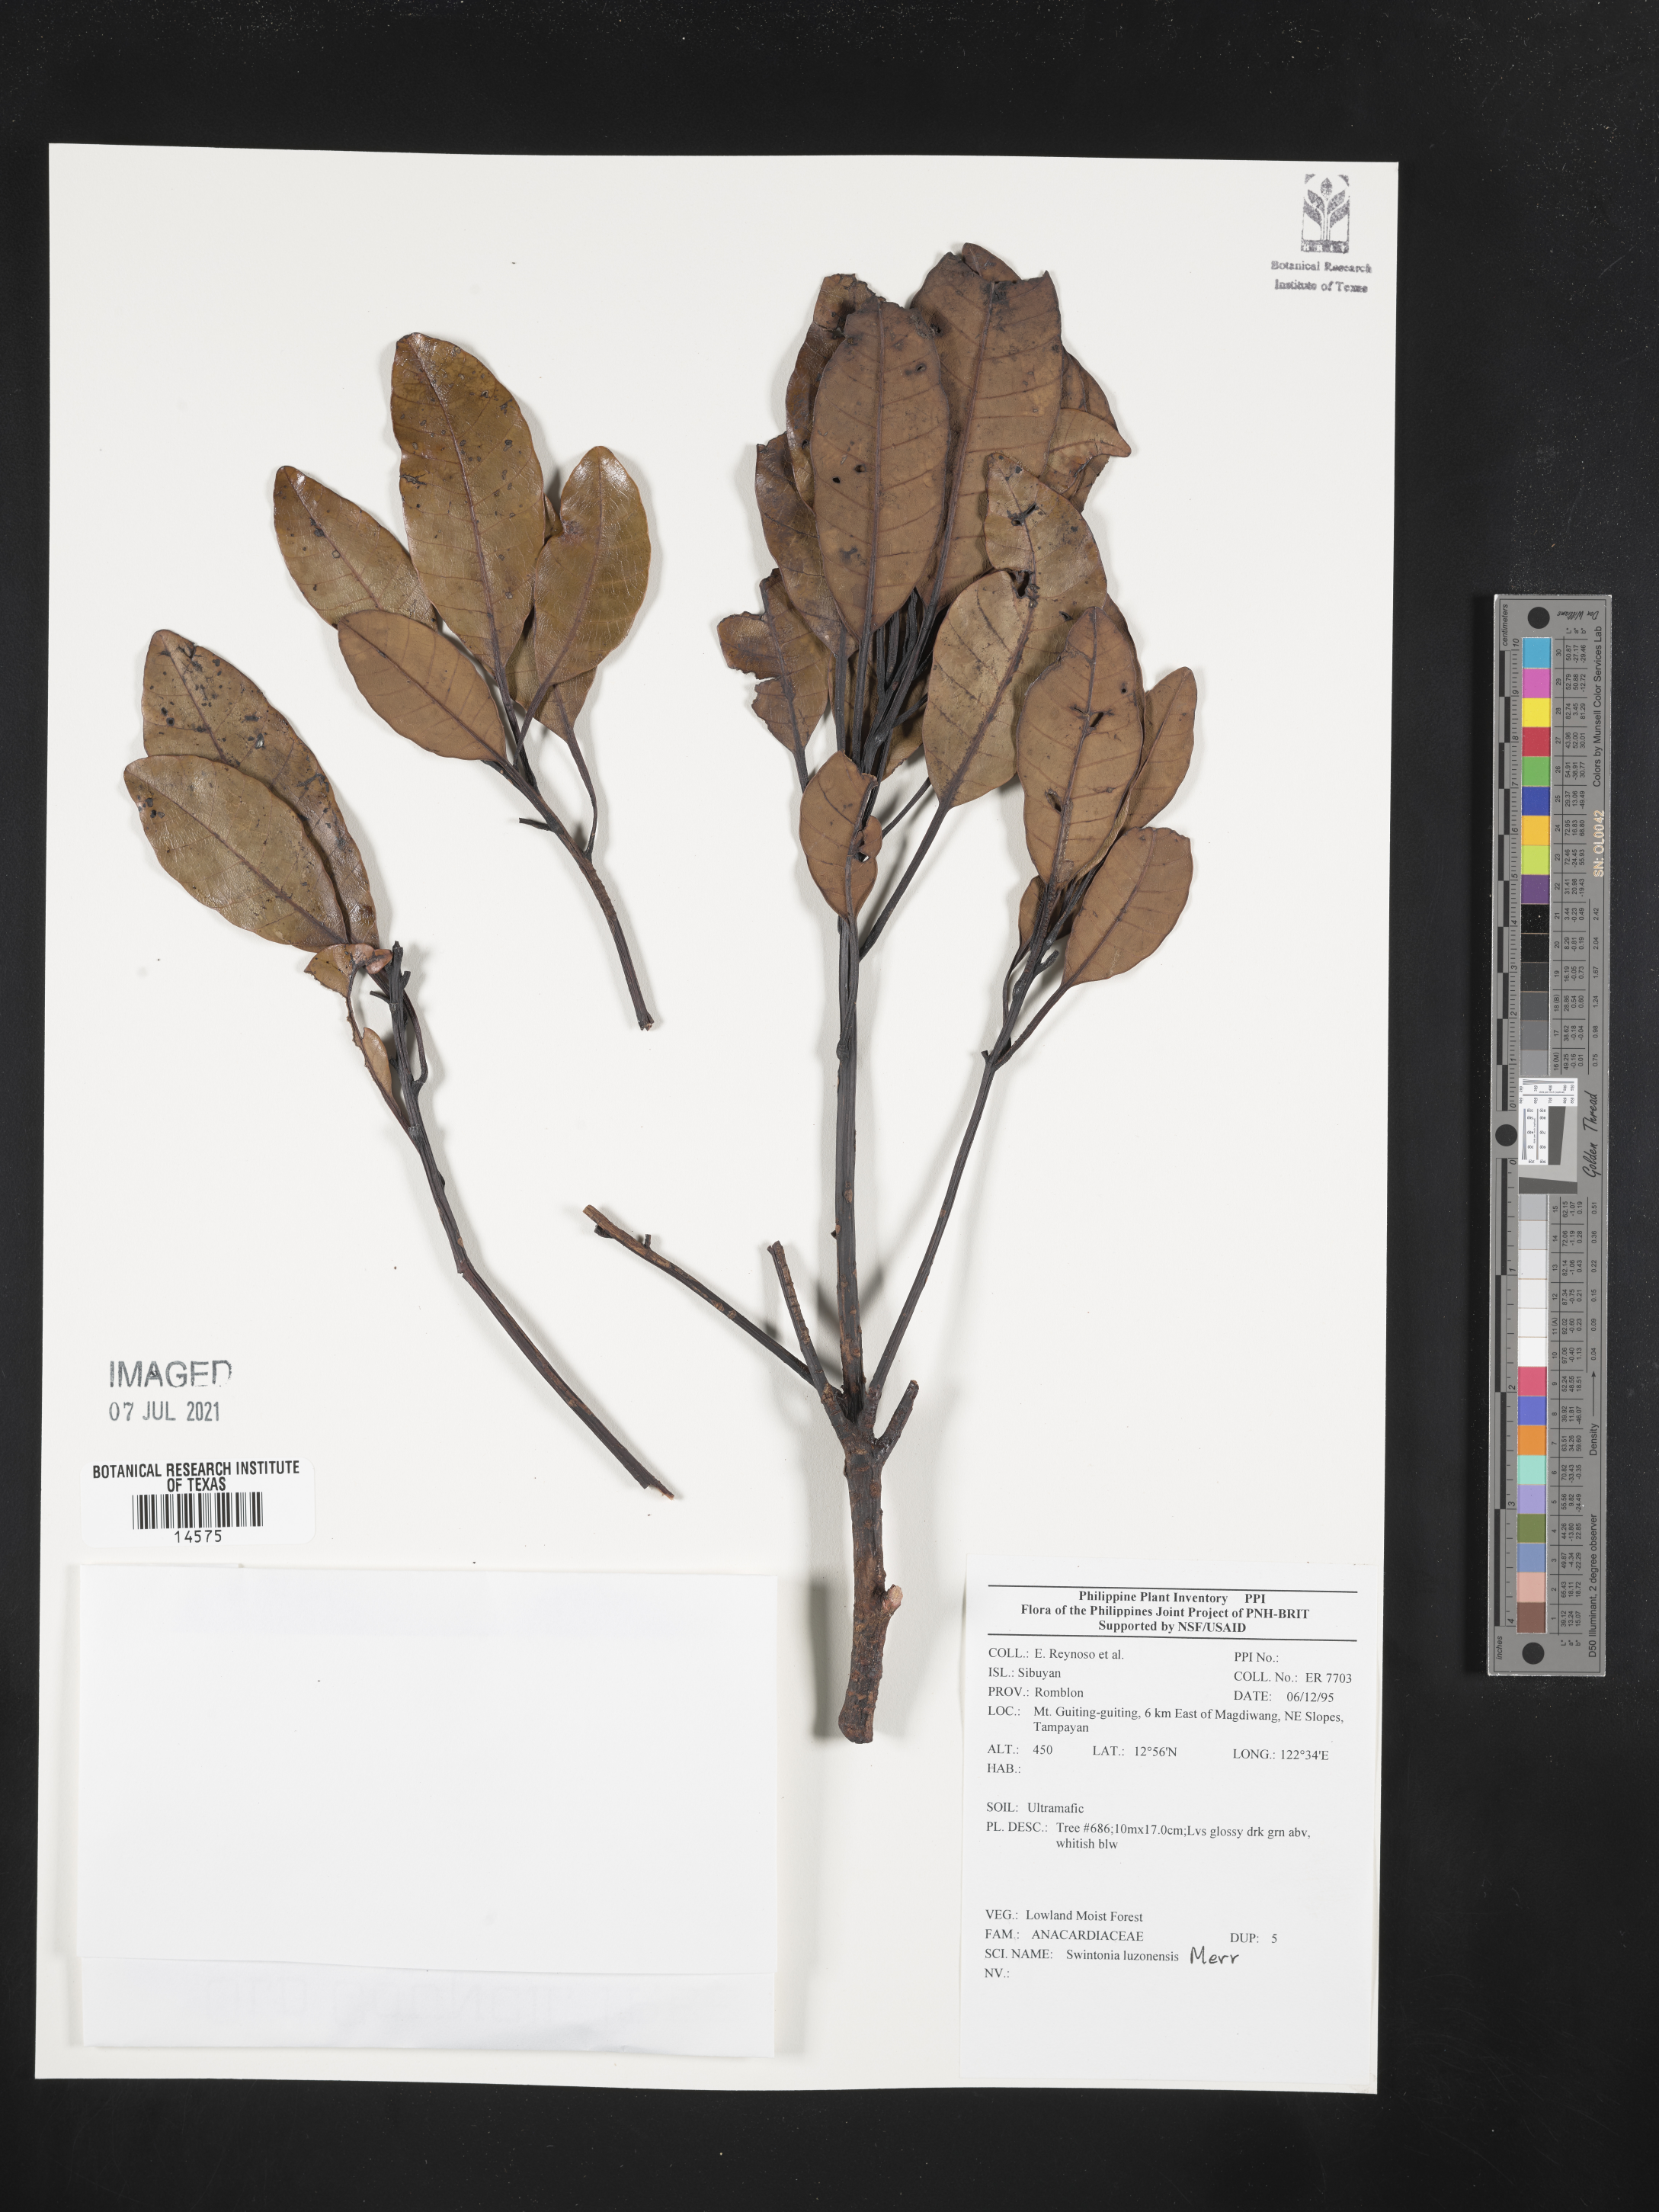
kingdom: Plantae
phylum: Tracheophyta
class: Magnoliopsida
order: Sapindales
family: Anacardiaceae
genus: Swintonia
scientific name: Swintonia acuta
